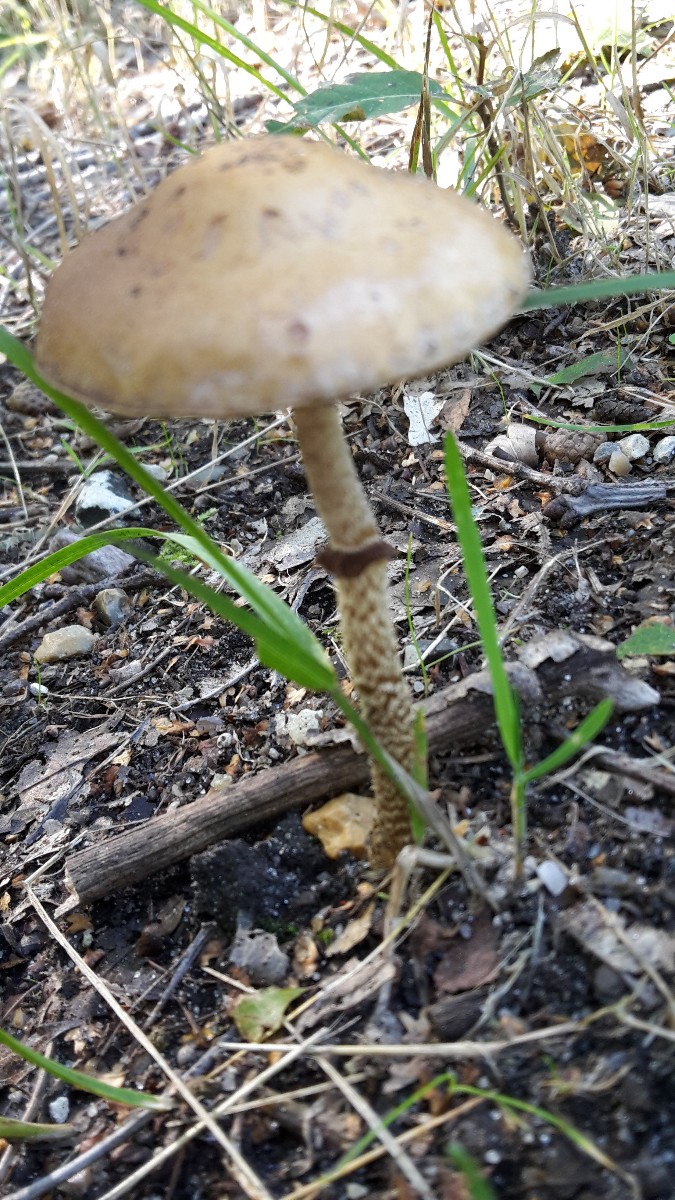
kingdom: Fungi
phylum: Basidiomycota
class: Agaricomycetes
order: Agaricales
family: Strophariaceae
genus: Leratiomyces
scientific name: Leratiomyces squamosus
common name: skællet bredblad
